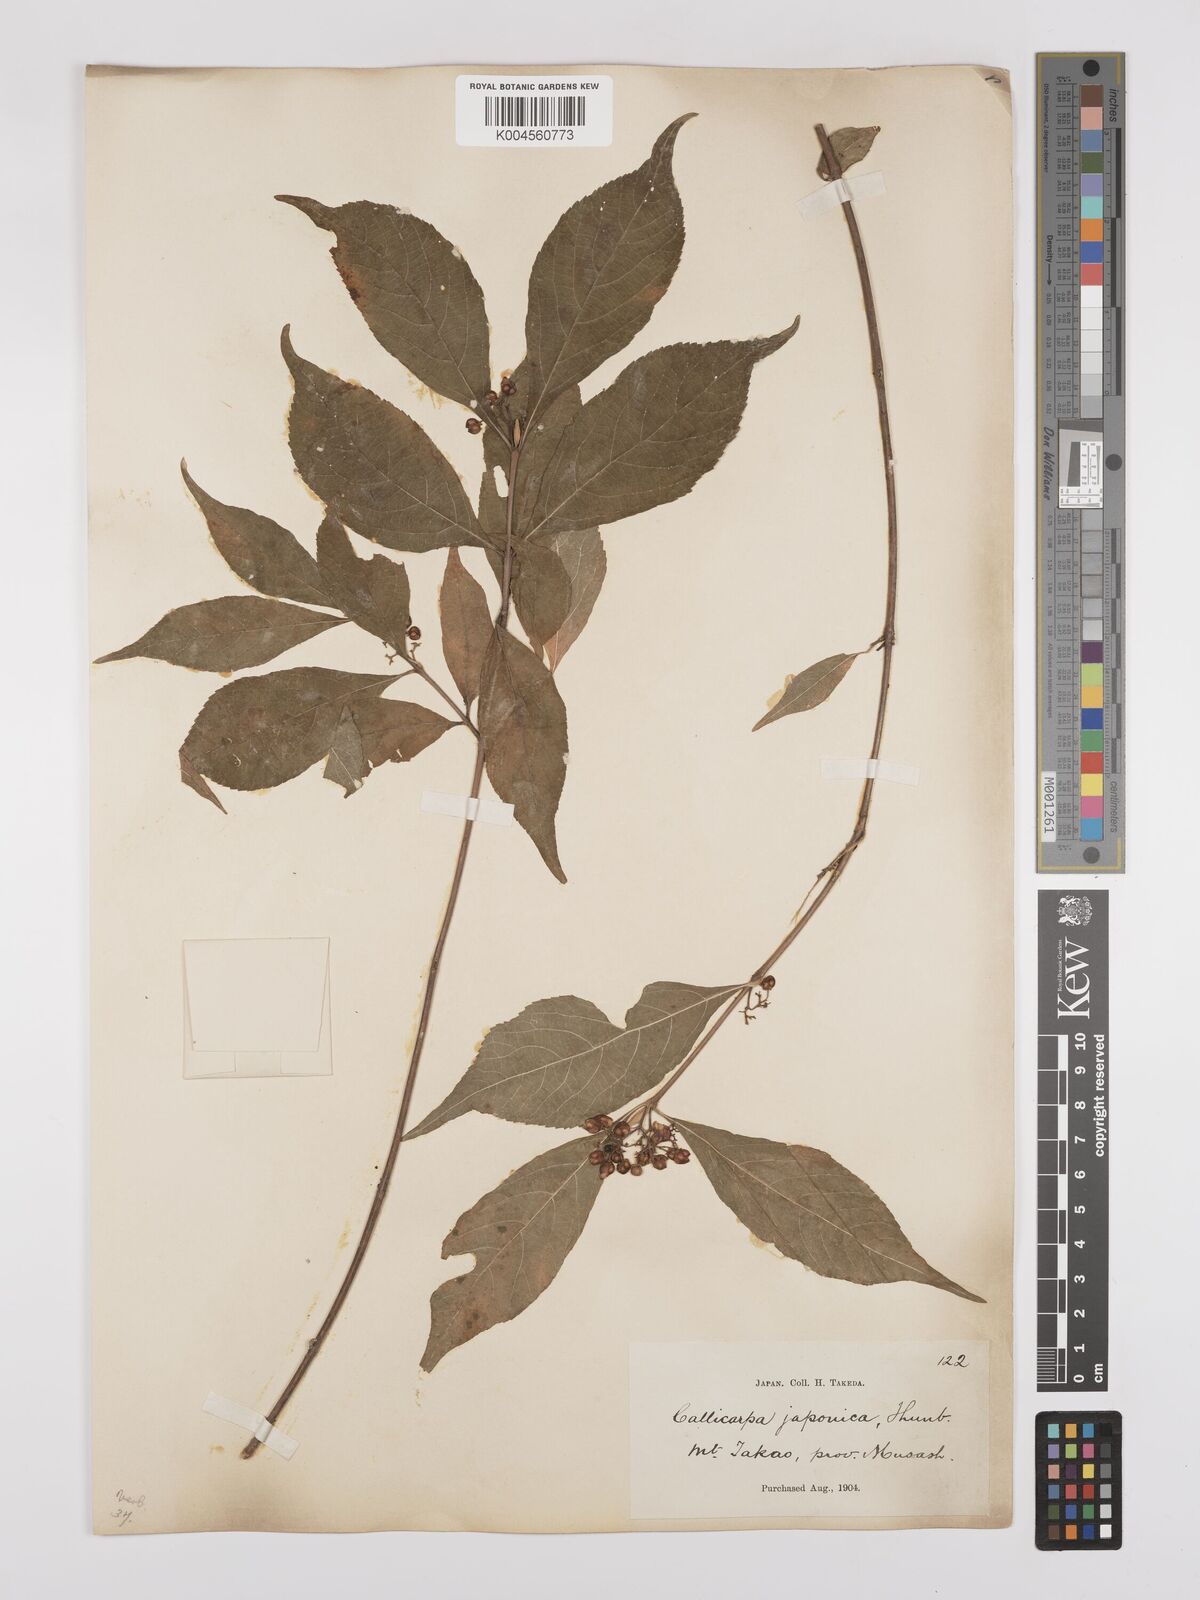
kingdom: Plantae
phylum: Tracheophyta
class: Magnoliopsida
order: Lamiales
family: Lamiaceae
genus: Callicarpa
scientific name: Callicarpa japonica
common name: Japanese beauty-berry
